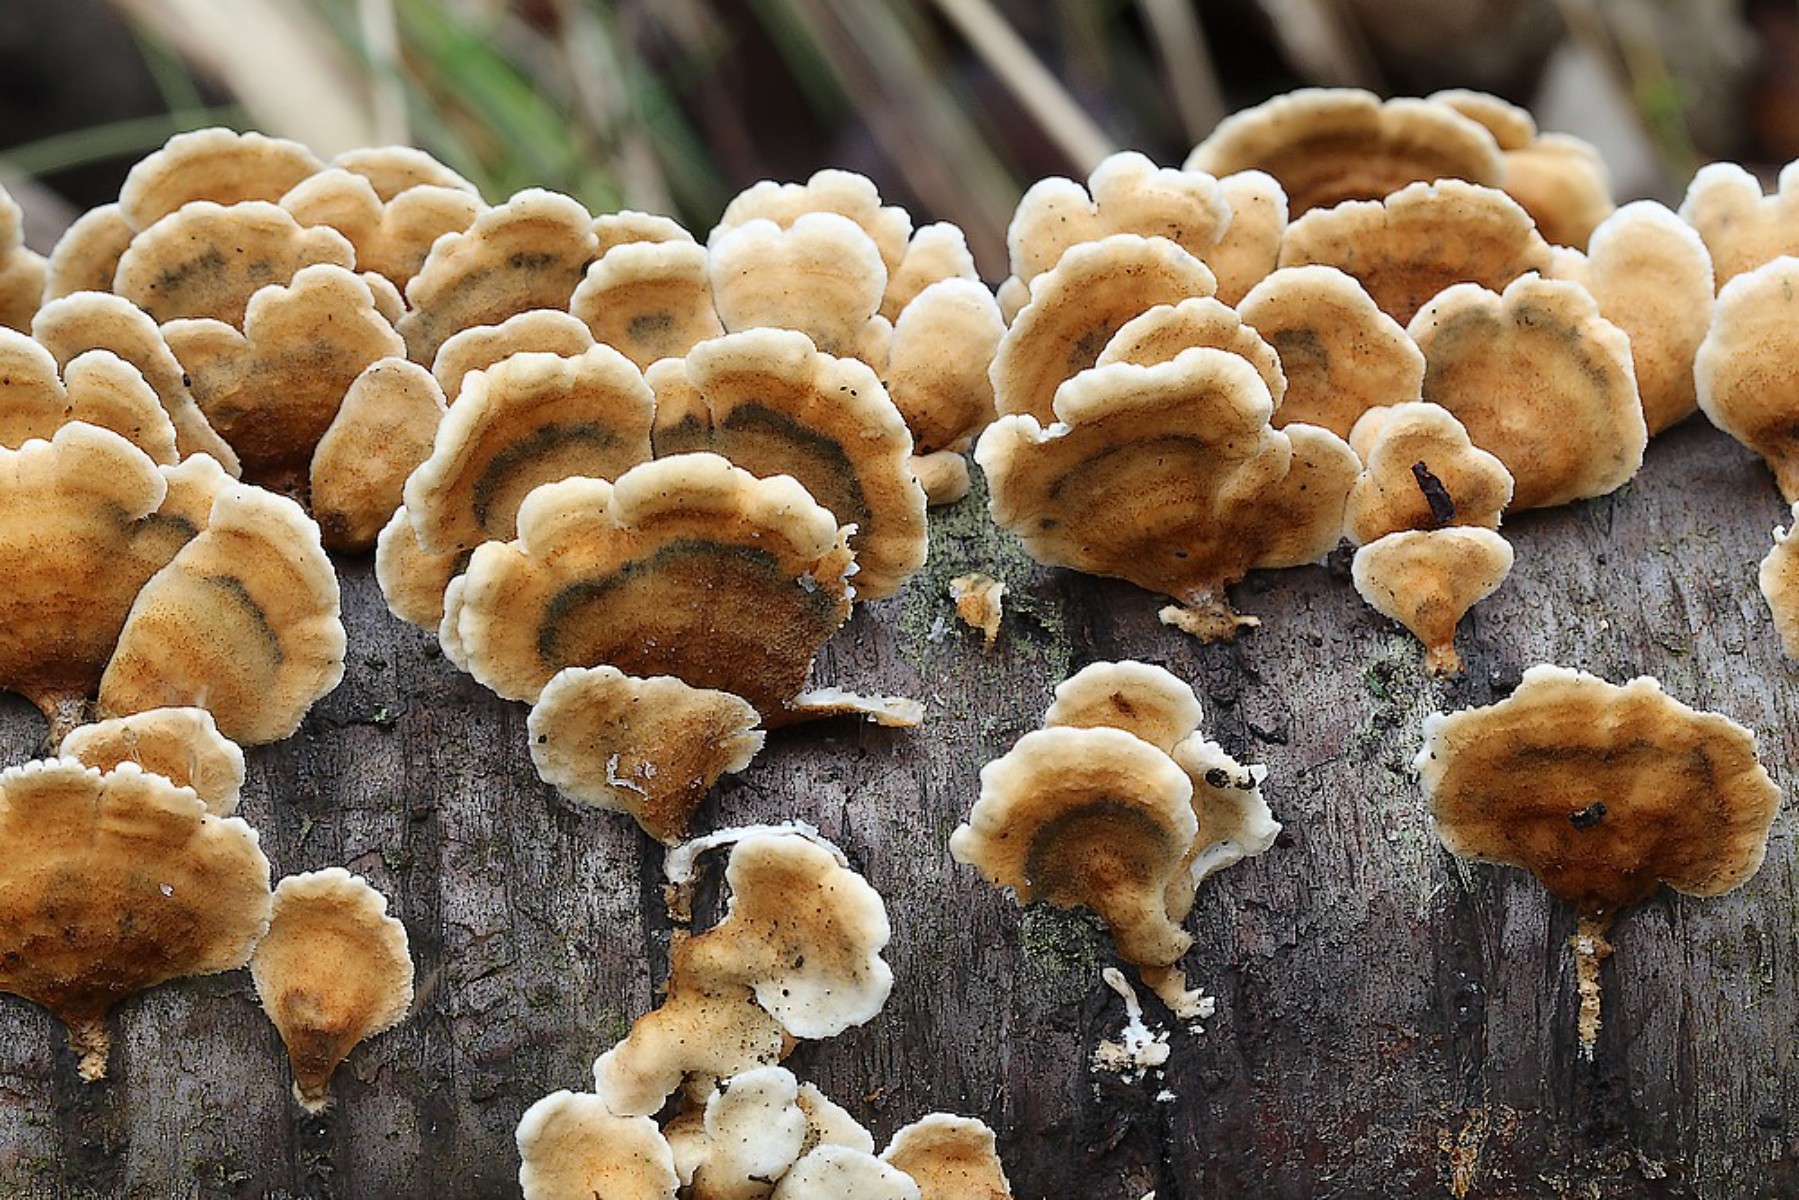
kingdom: Fungi
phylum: Basidiomycota
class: Agaricomycetes
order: Amylocorticiales
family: Amylocorticiaceae
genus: Plicaturopsis
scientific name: Plicaturopsis crispa
